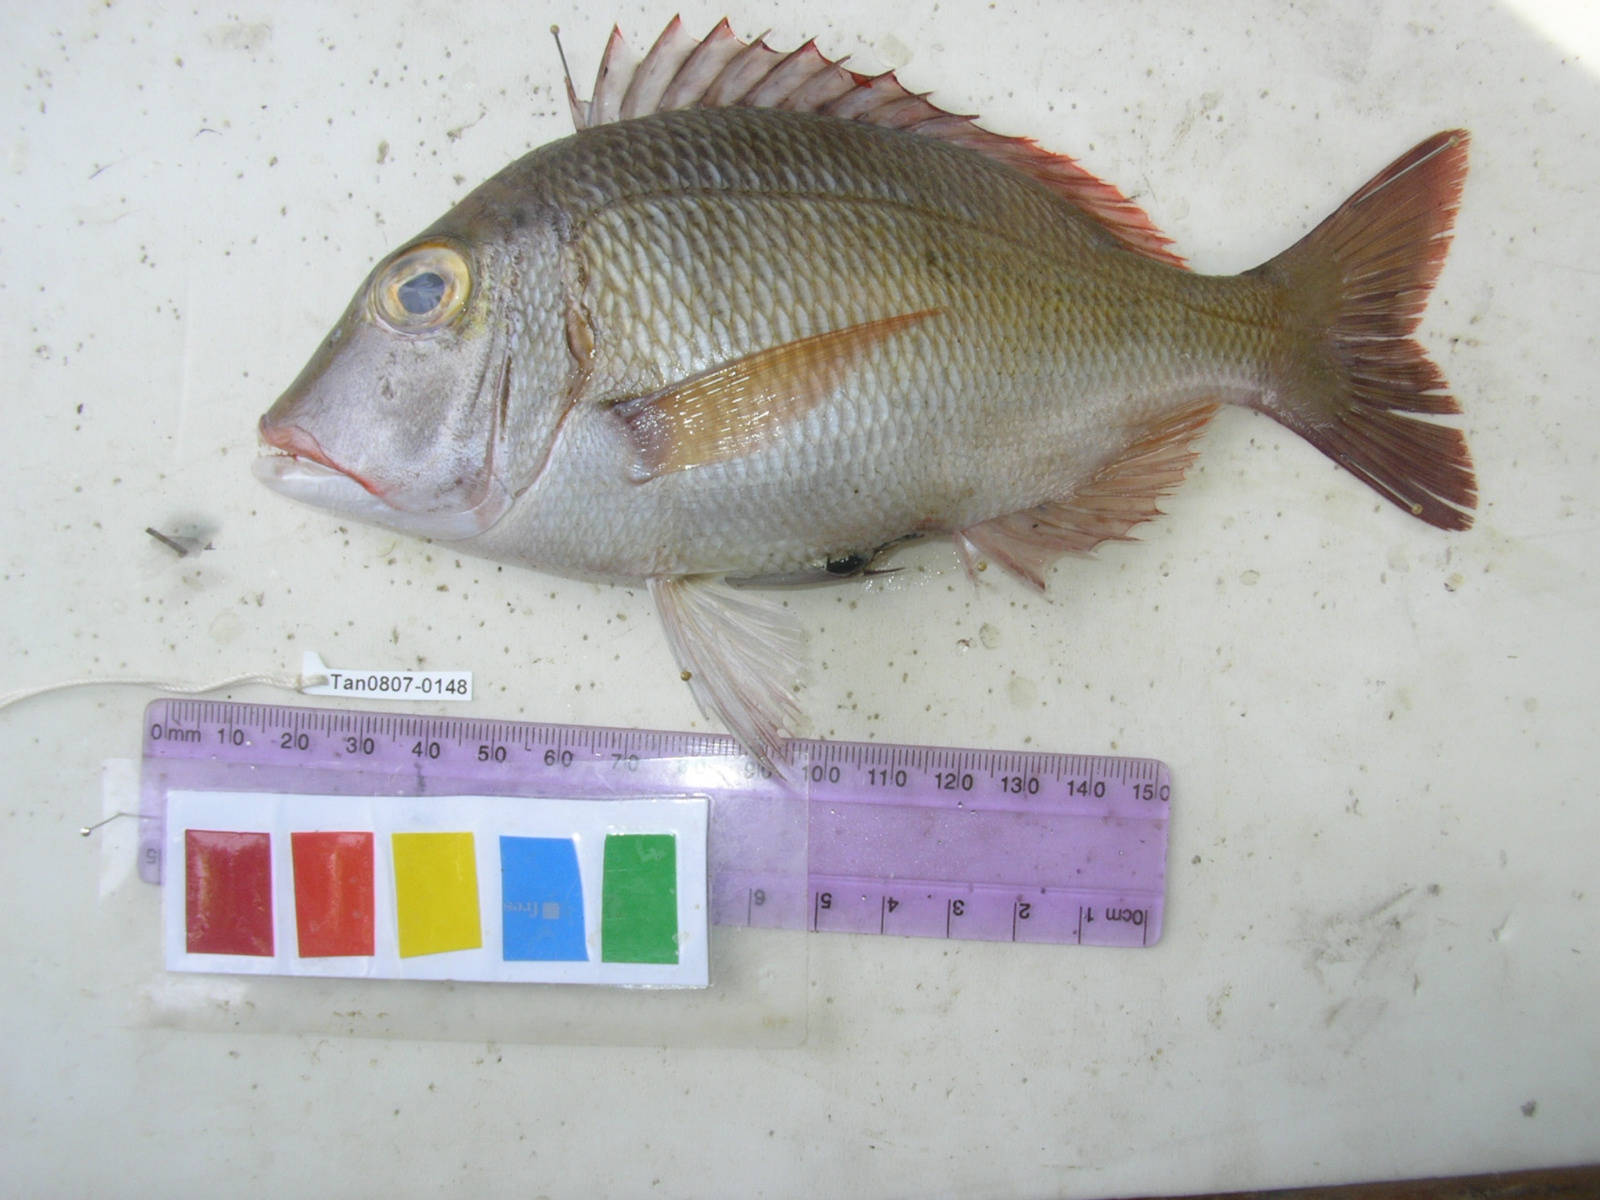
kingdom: Animalia
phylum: Chordata
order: Perciformes
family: Lethrinidae
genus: Lethrinus
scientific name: Lethrinus lentjan
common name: Redspot emperor
